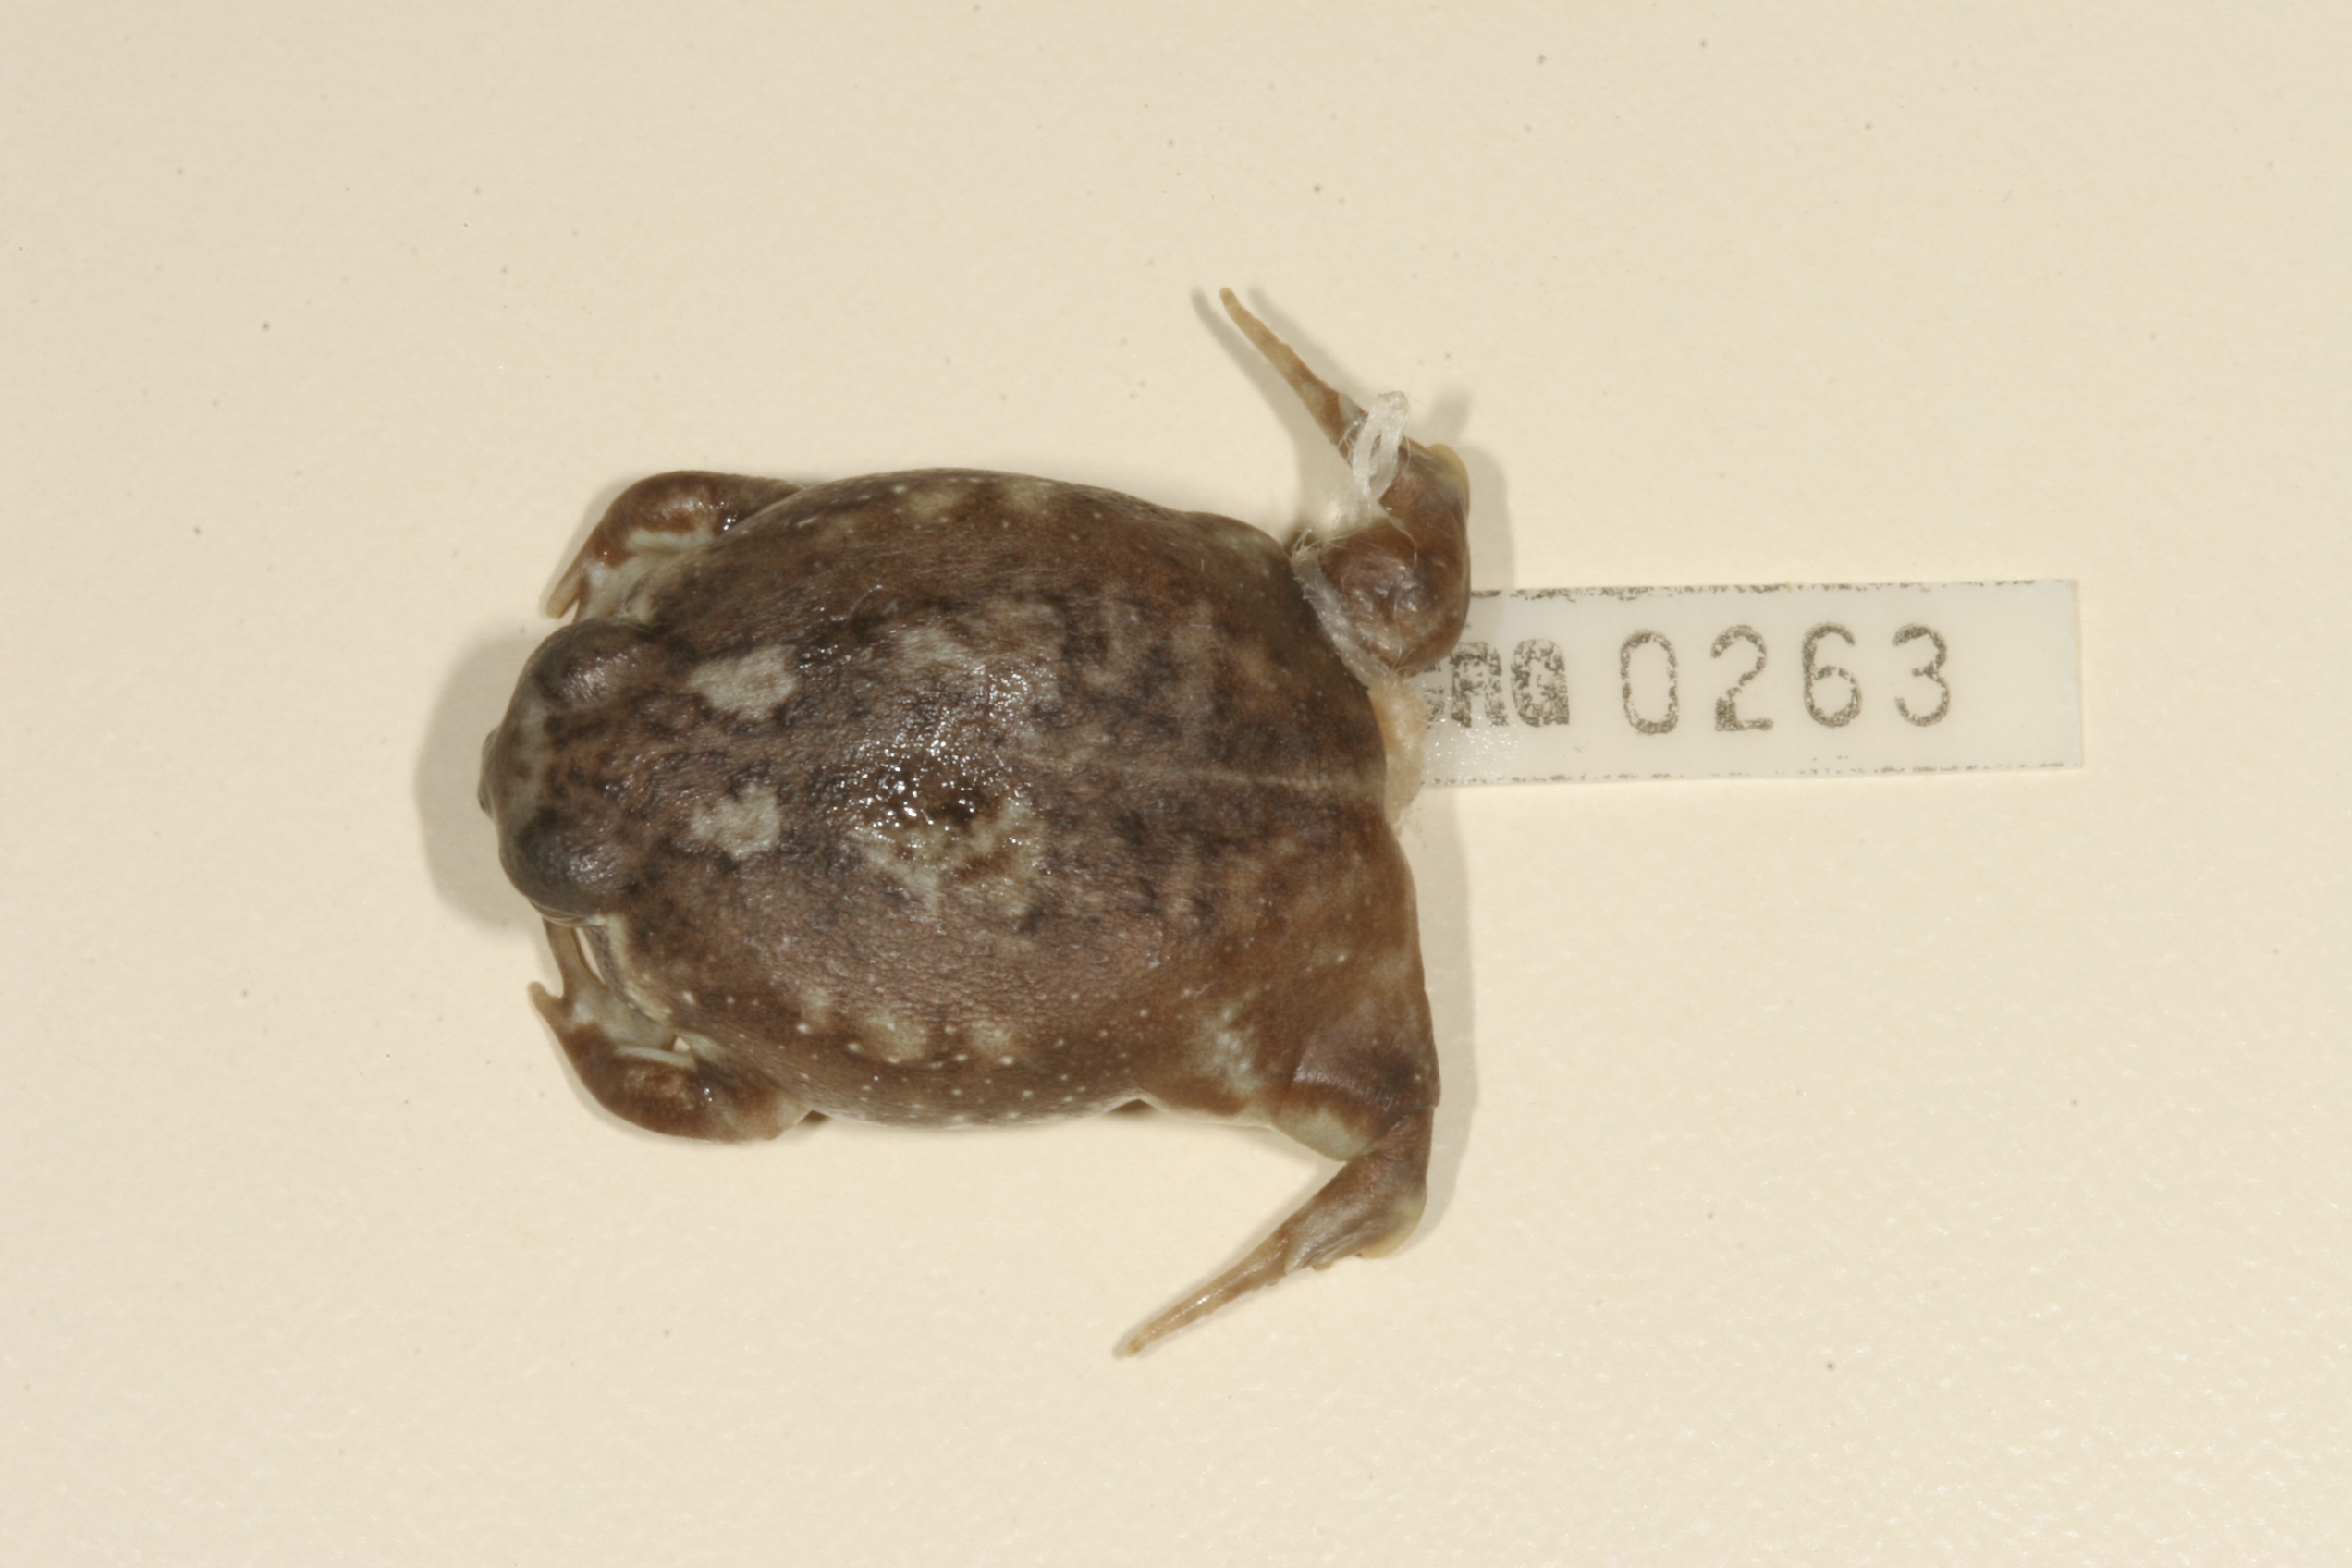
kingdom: Animalia
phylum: Chordata
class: Amphibia
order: Anura
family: Brevicipitidae
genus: Breviceps
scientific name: Breviceps adspersus
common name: Common rain frog
